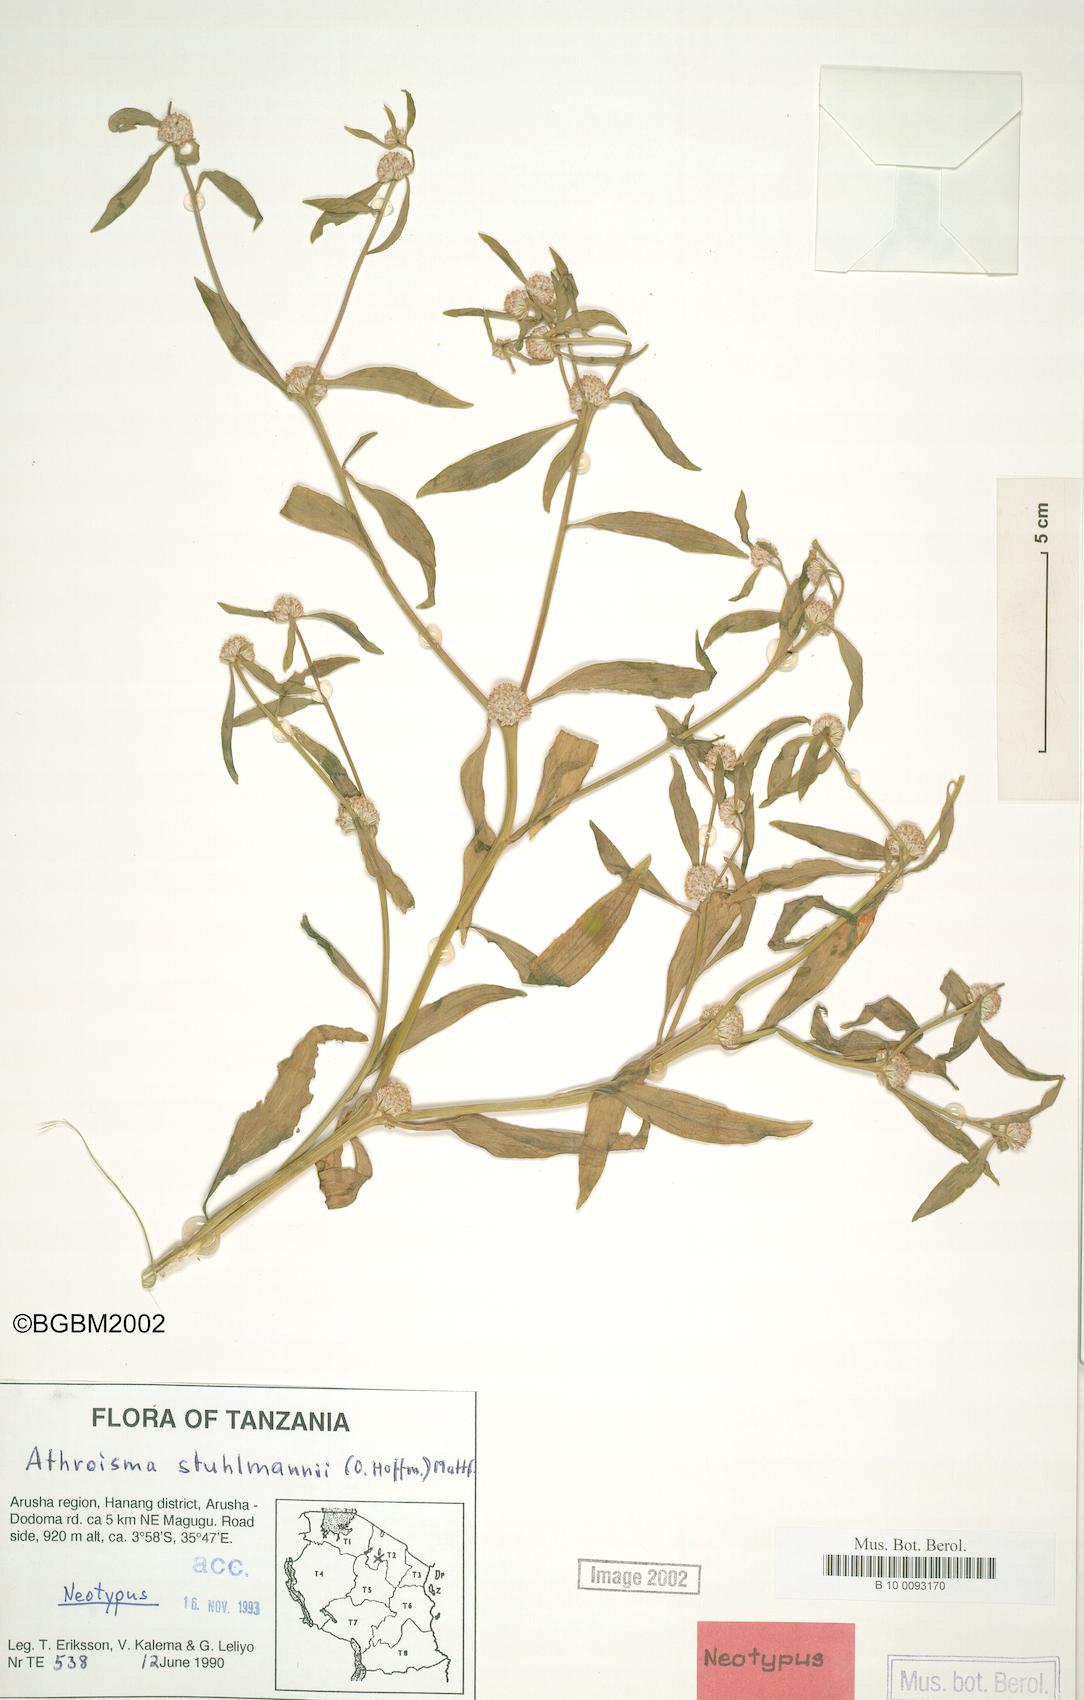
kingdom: Plantae
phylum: Tracheophyta
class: Magnoliopsida
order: Asterales
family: Asteraceae
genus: Athroisma
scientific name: Athroisma stuhlmannii
